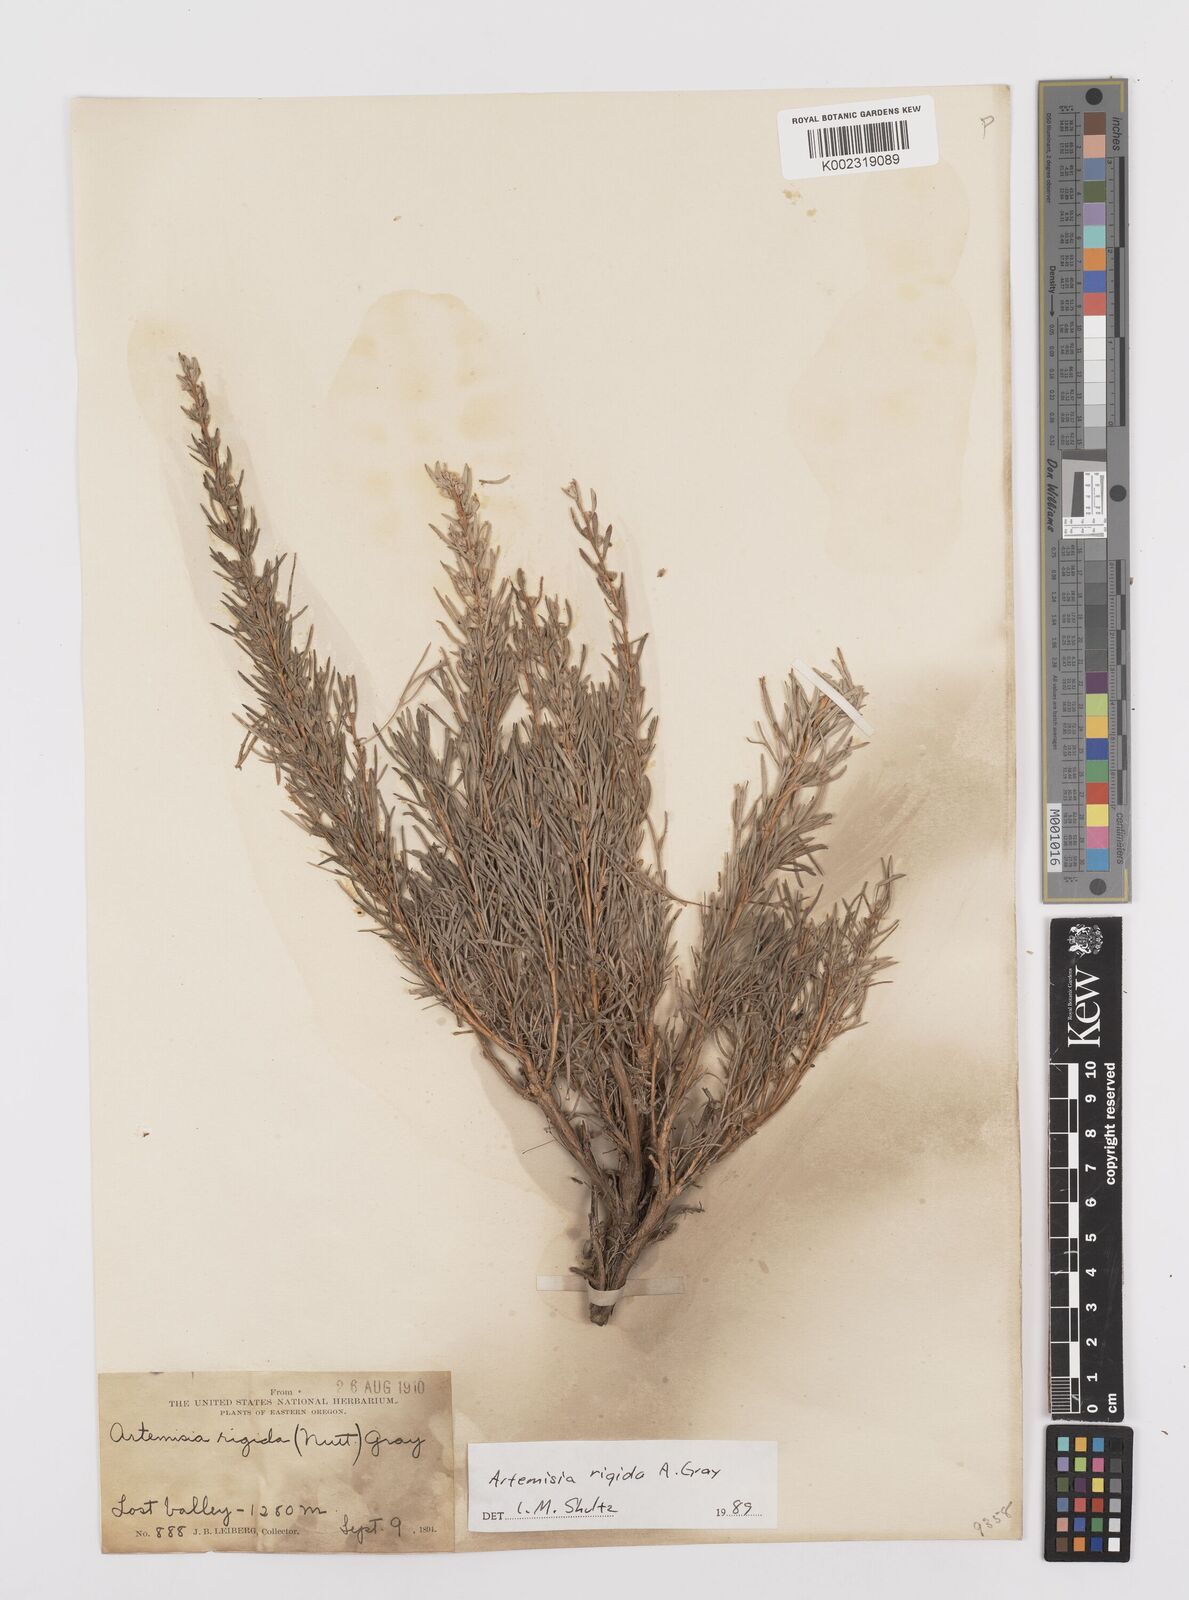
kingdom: Plantae
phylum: Tracheophyta
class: Magnoliopsida
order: Asterales
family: Asteraceae
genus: Artemisia
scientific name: Artemisia rigida
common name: Scabland sagebrush
